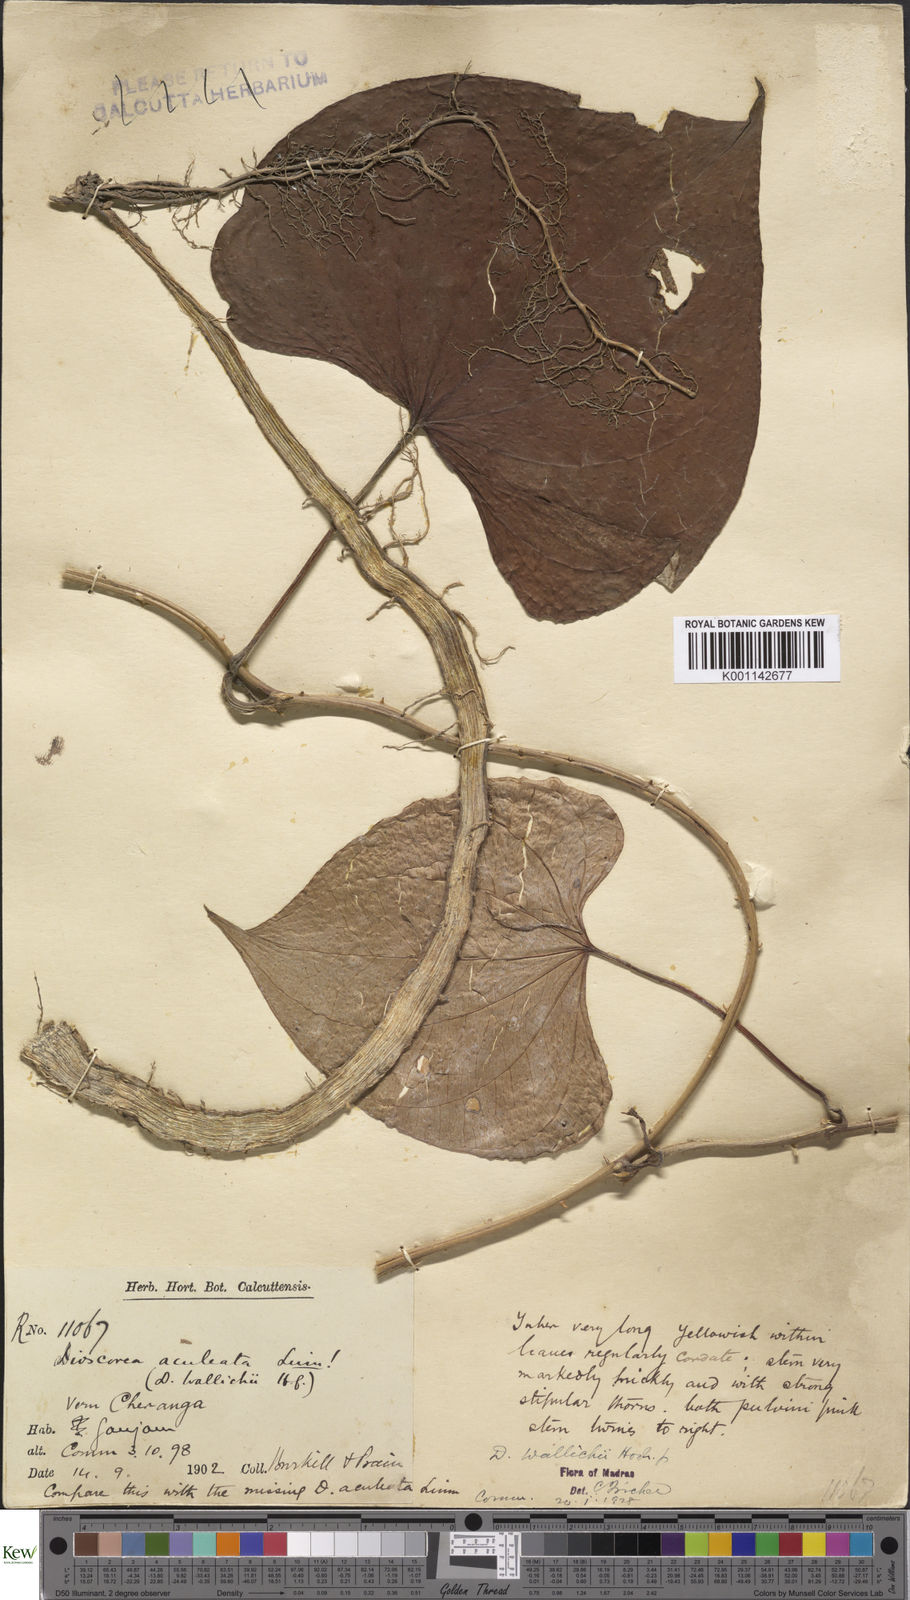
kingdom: Plantae
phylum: Tracheophyta
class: Liliopsida
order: Dioscoreales
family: Dioscoreaceae
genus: Dioscorea
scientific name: Dioscorea wallichii
